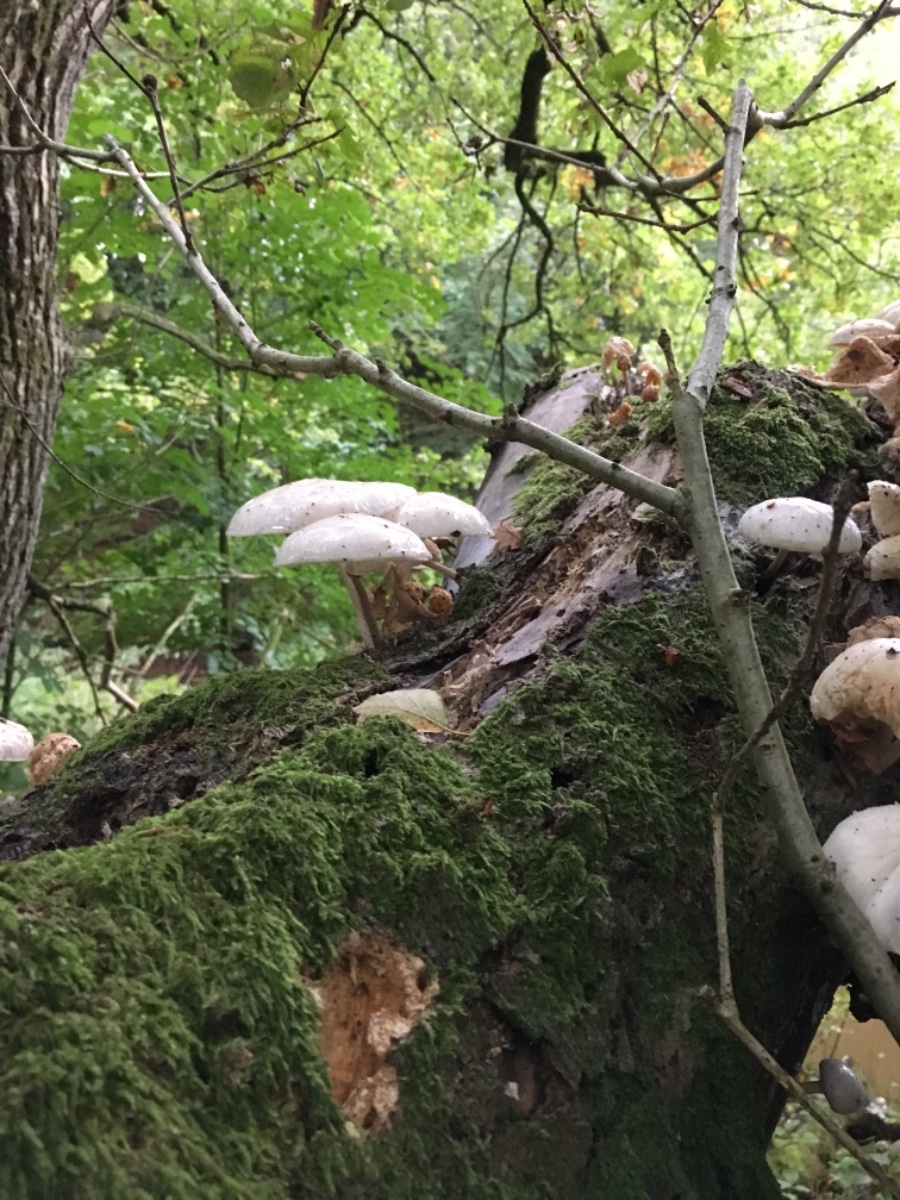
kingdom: Fungi
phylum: Basidiomycota
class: Agaricomycetes
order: Agaricales
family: Physalacriaceae
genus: Mucidula
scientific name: Mucidula mucida
